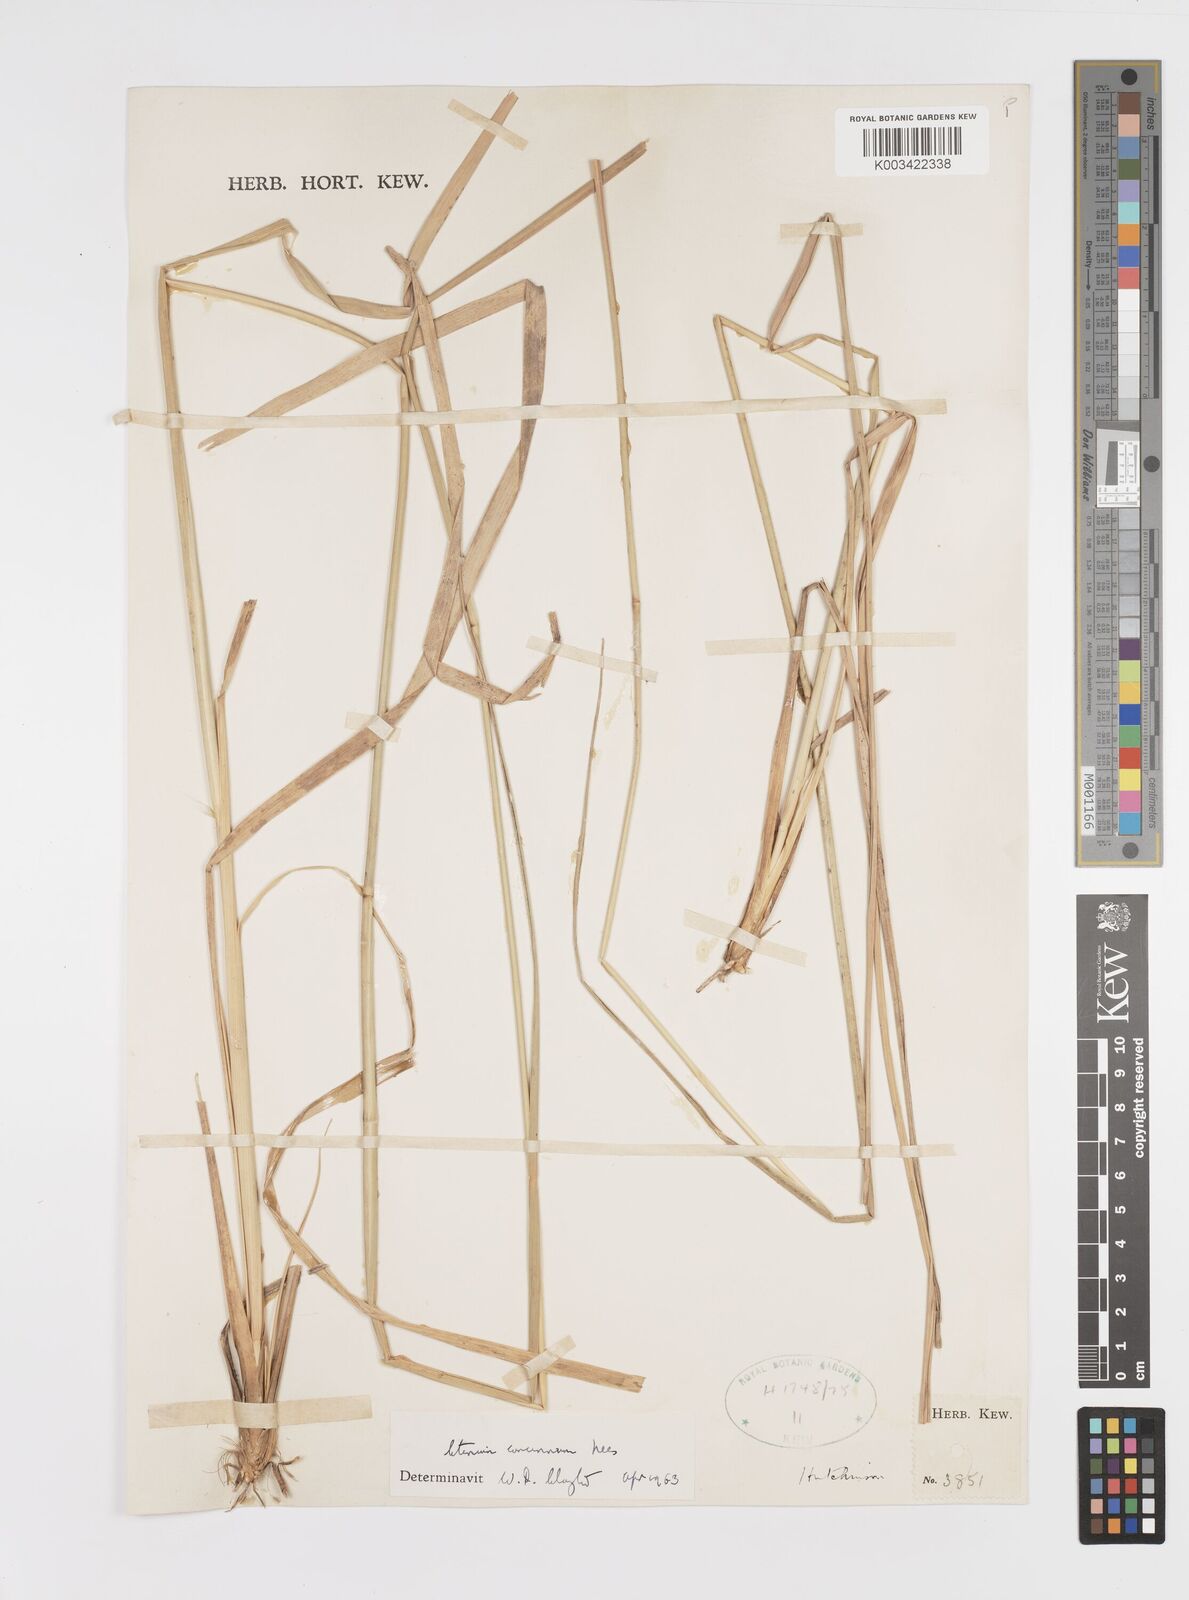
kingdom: Plantae
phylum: Tracheophyta
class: Liliopsida
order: Poales
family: Poaceae
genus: Ctenium
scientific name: Ctenium longiglume
